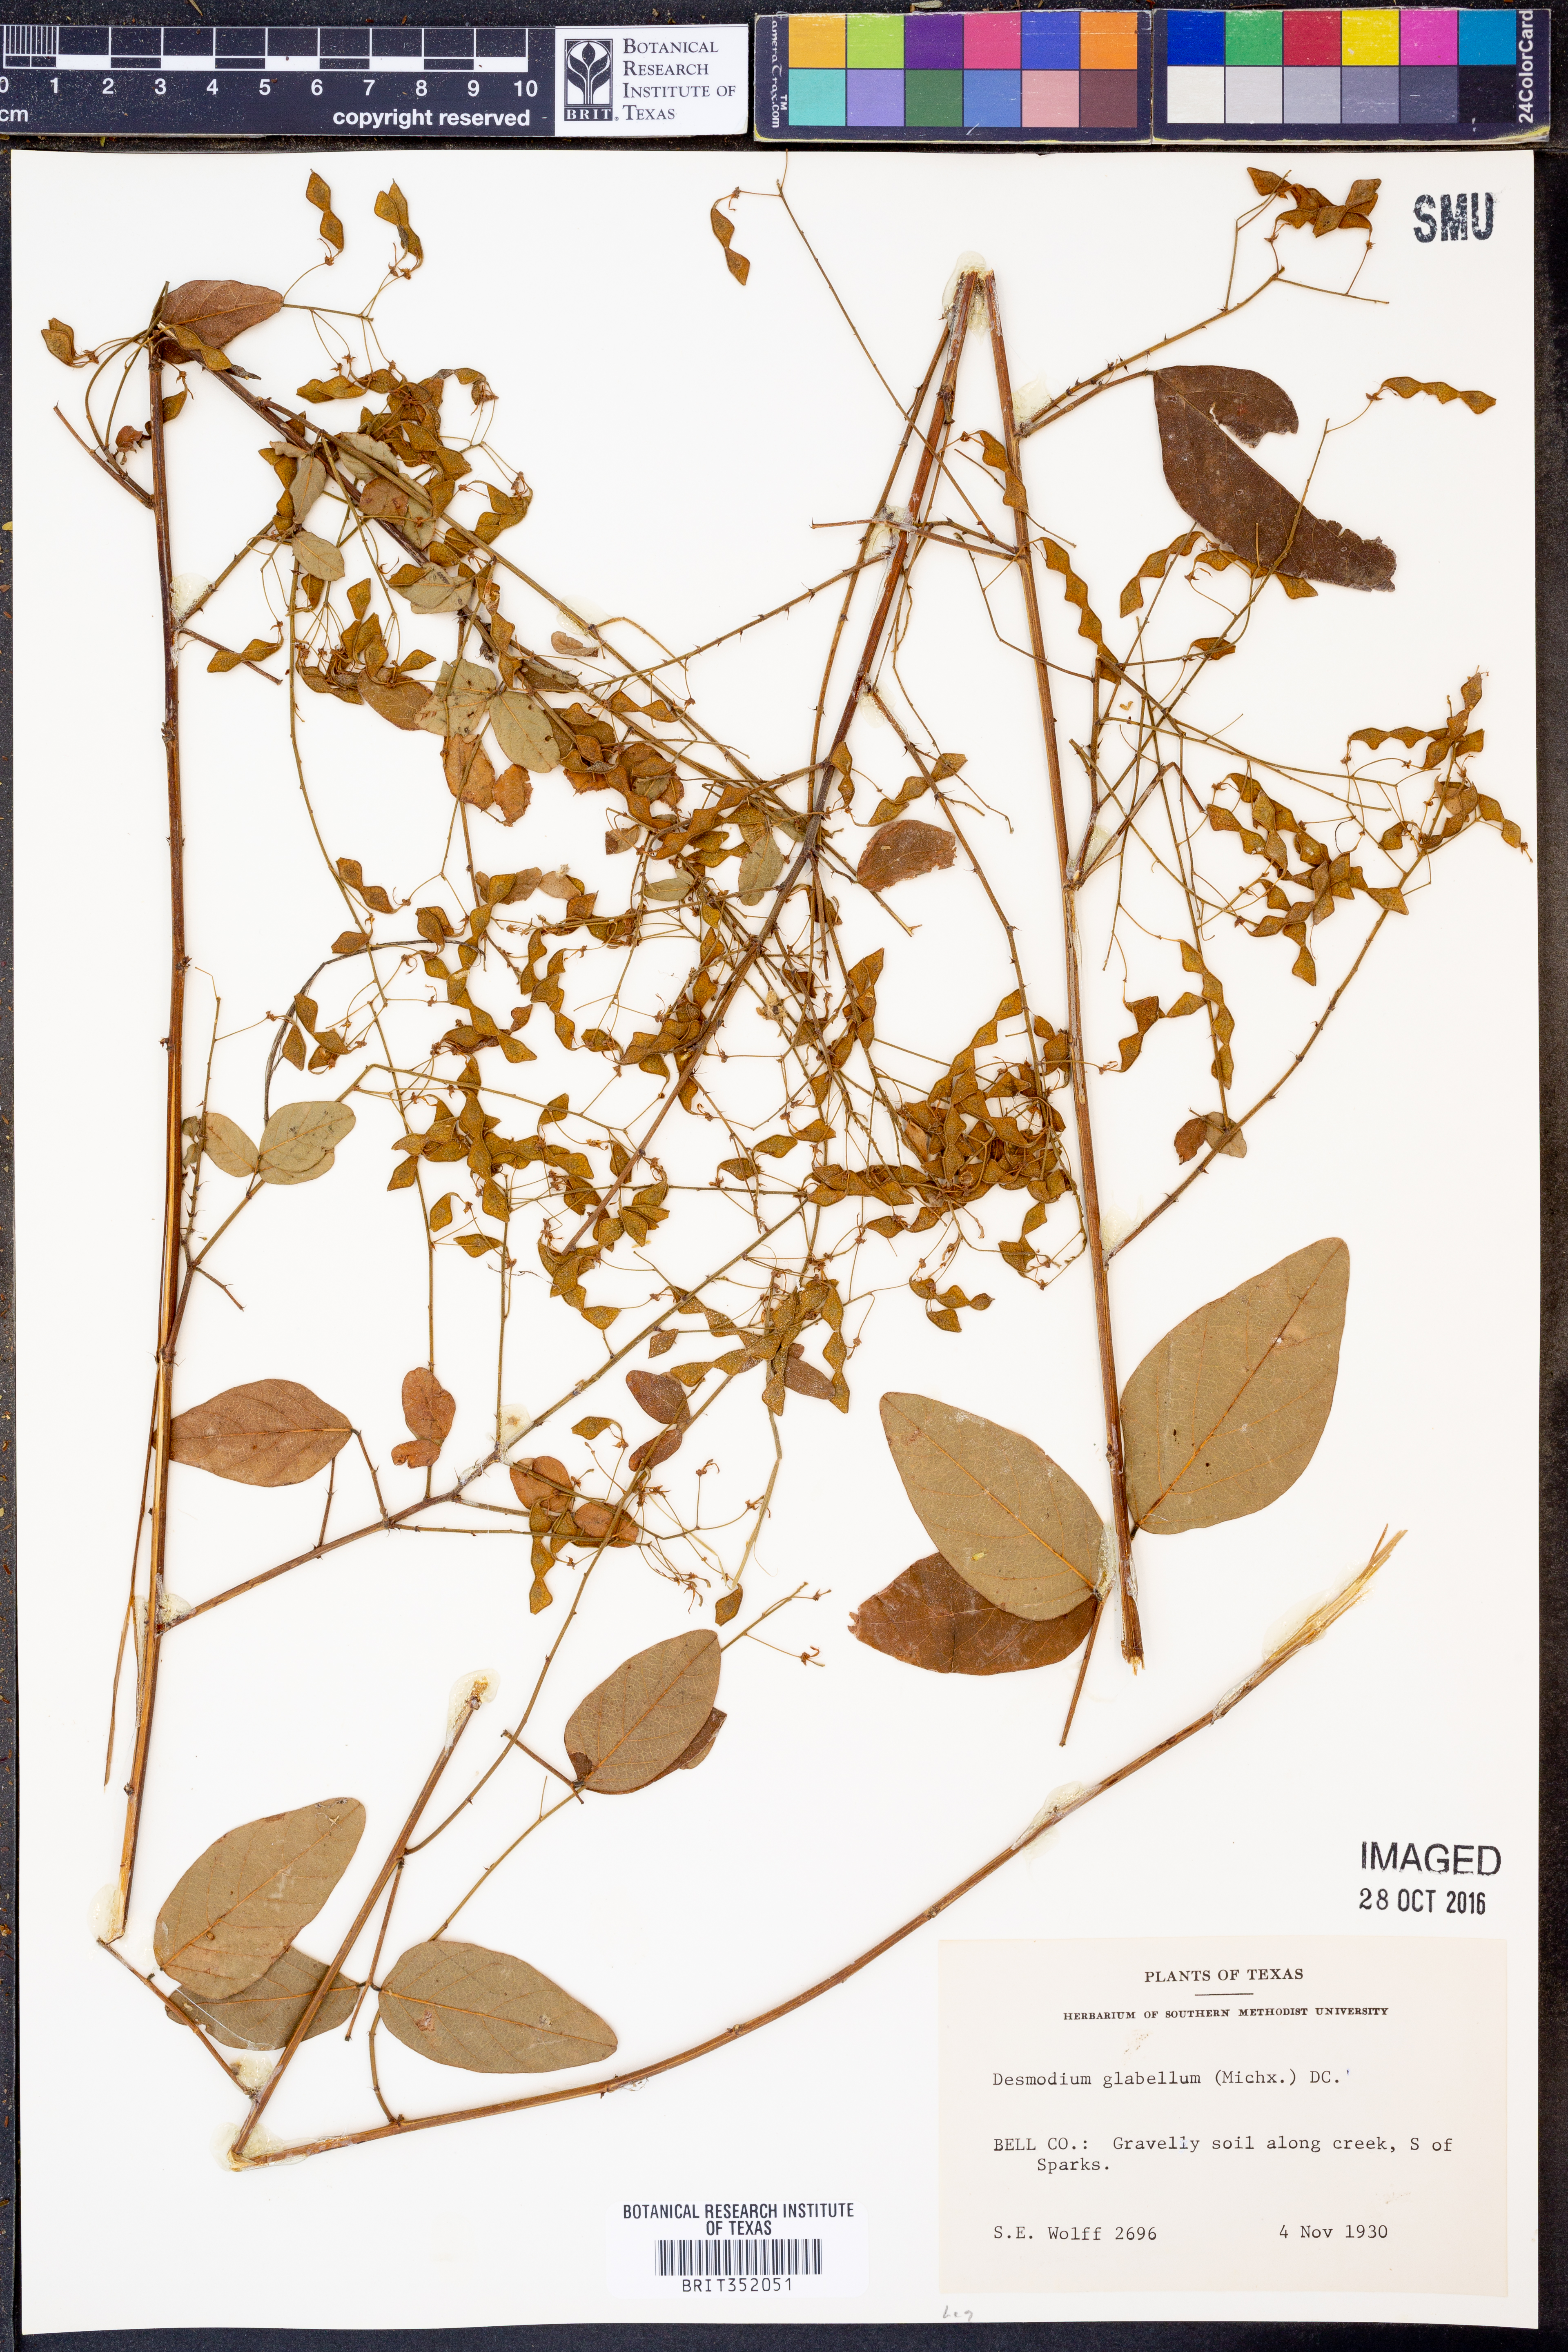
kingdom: Plantae
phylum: Tracheophyta
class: Magnoliopsida
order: Fabales
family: Fabaceae
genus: Desmodium
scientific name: Desmodium glabellum
